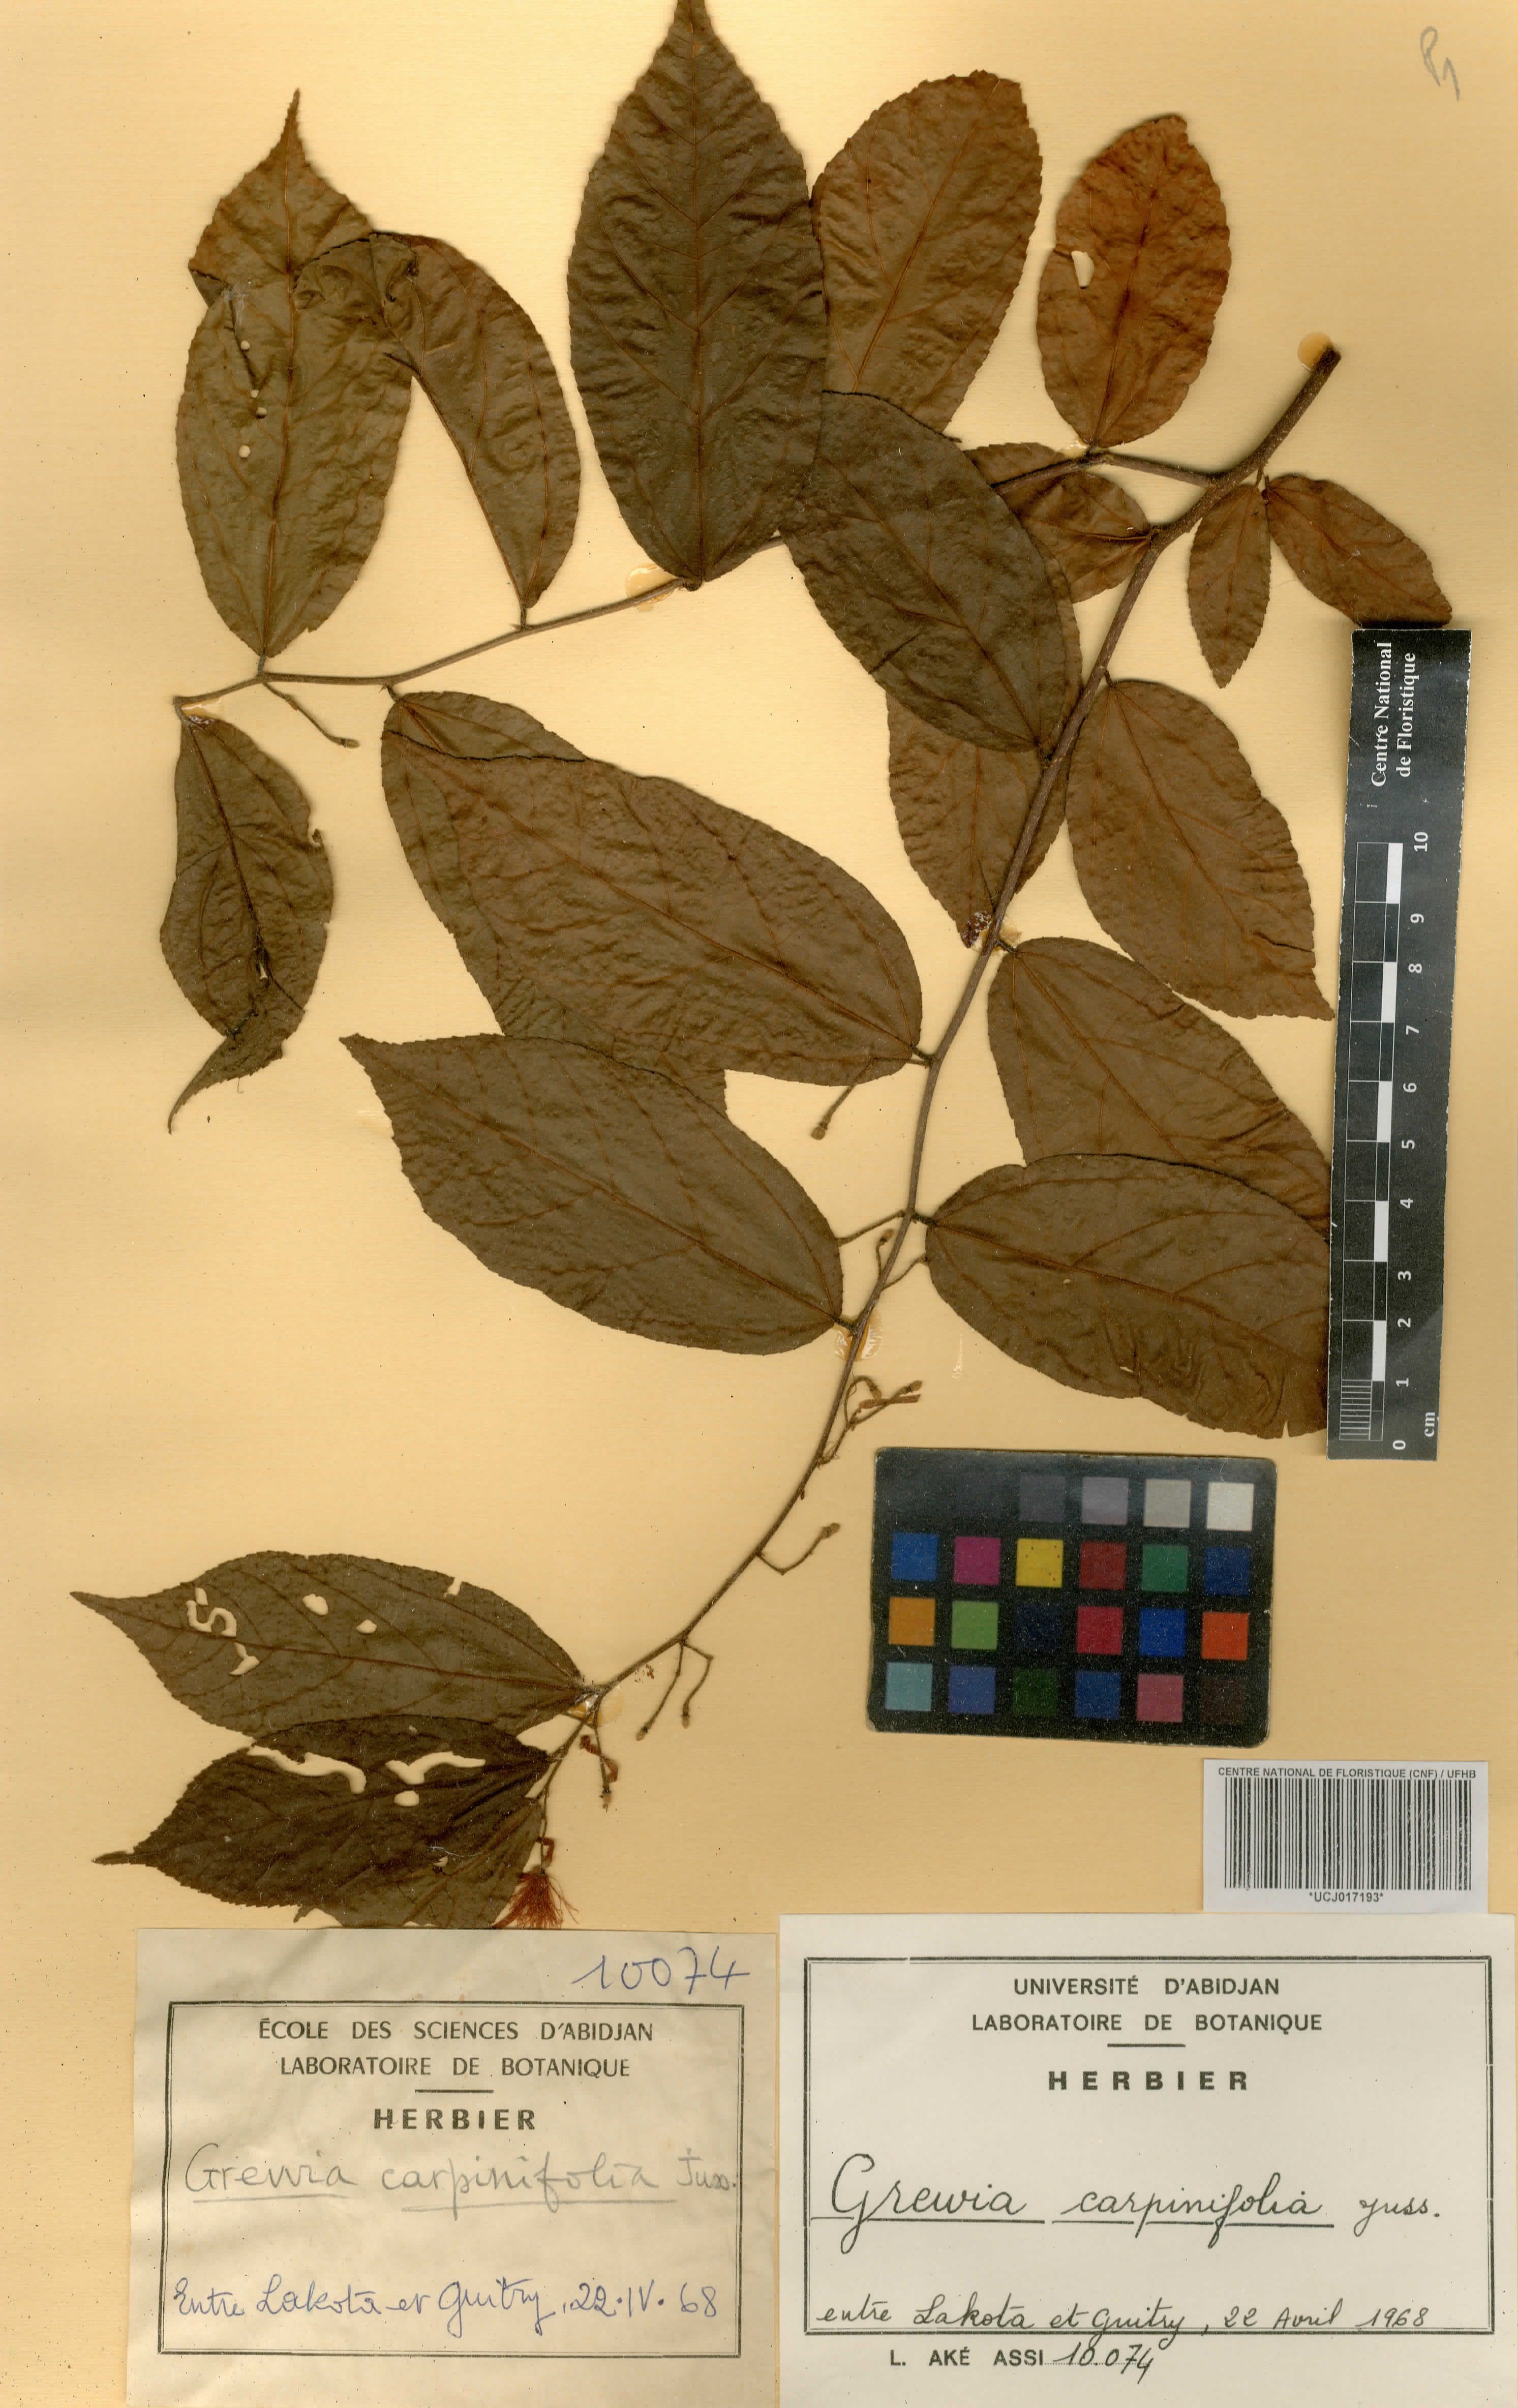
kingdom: Plantae
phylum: Tracheophyta
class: Magnoliopsida
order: Malvales
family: Malvaceae
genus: Grewia
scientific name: Grewia carpinifolia
